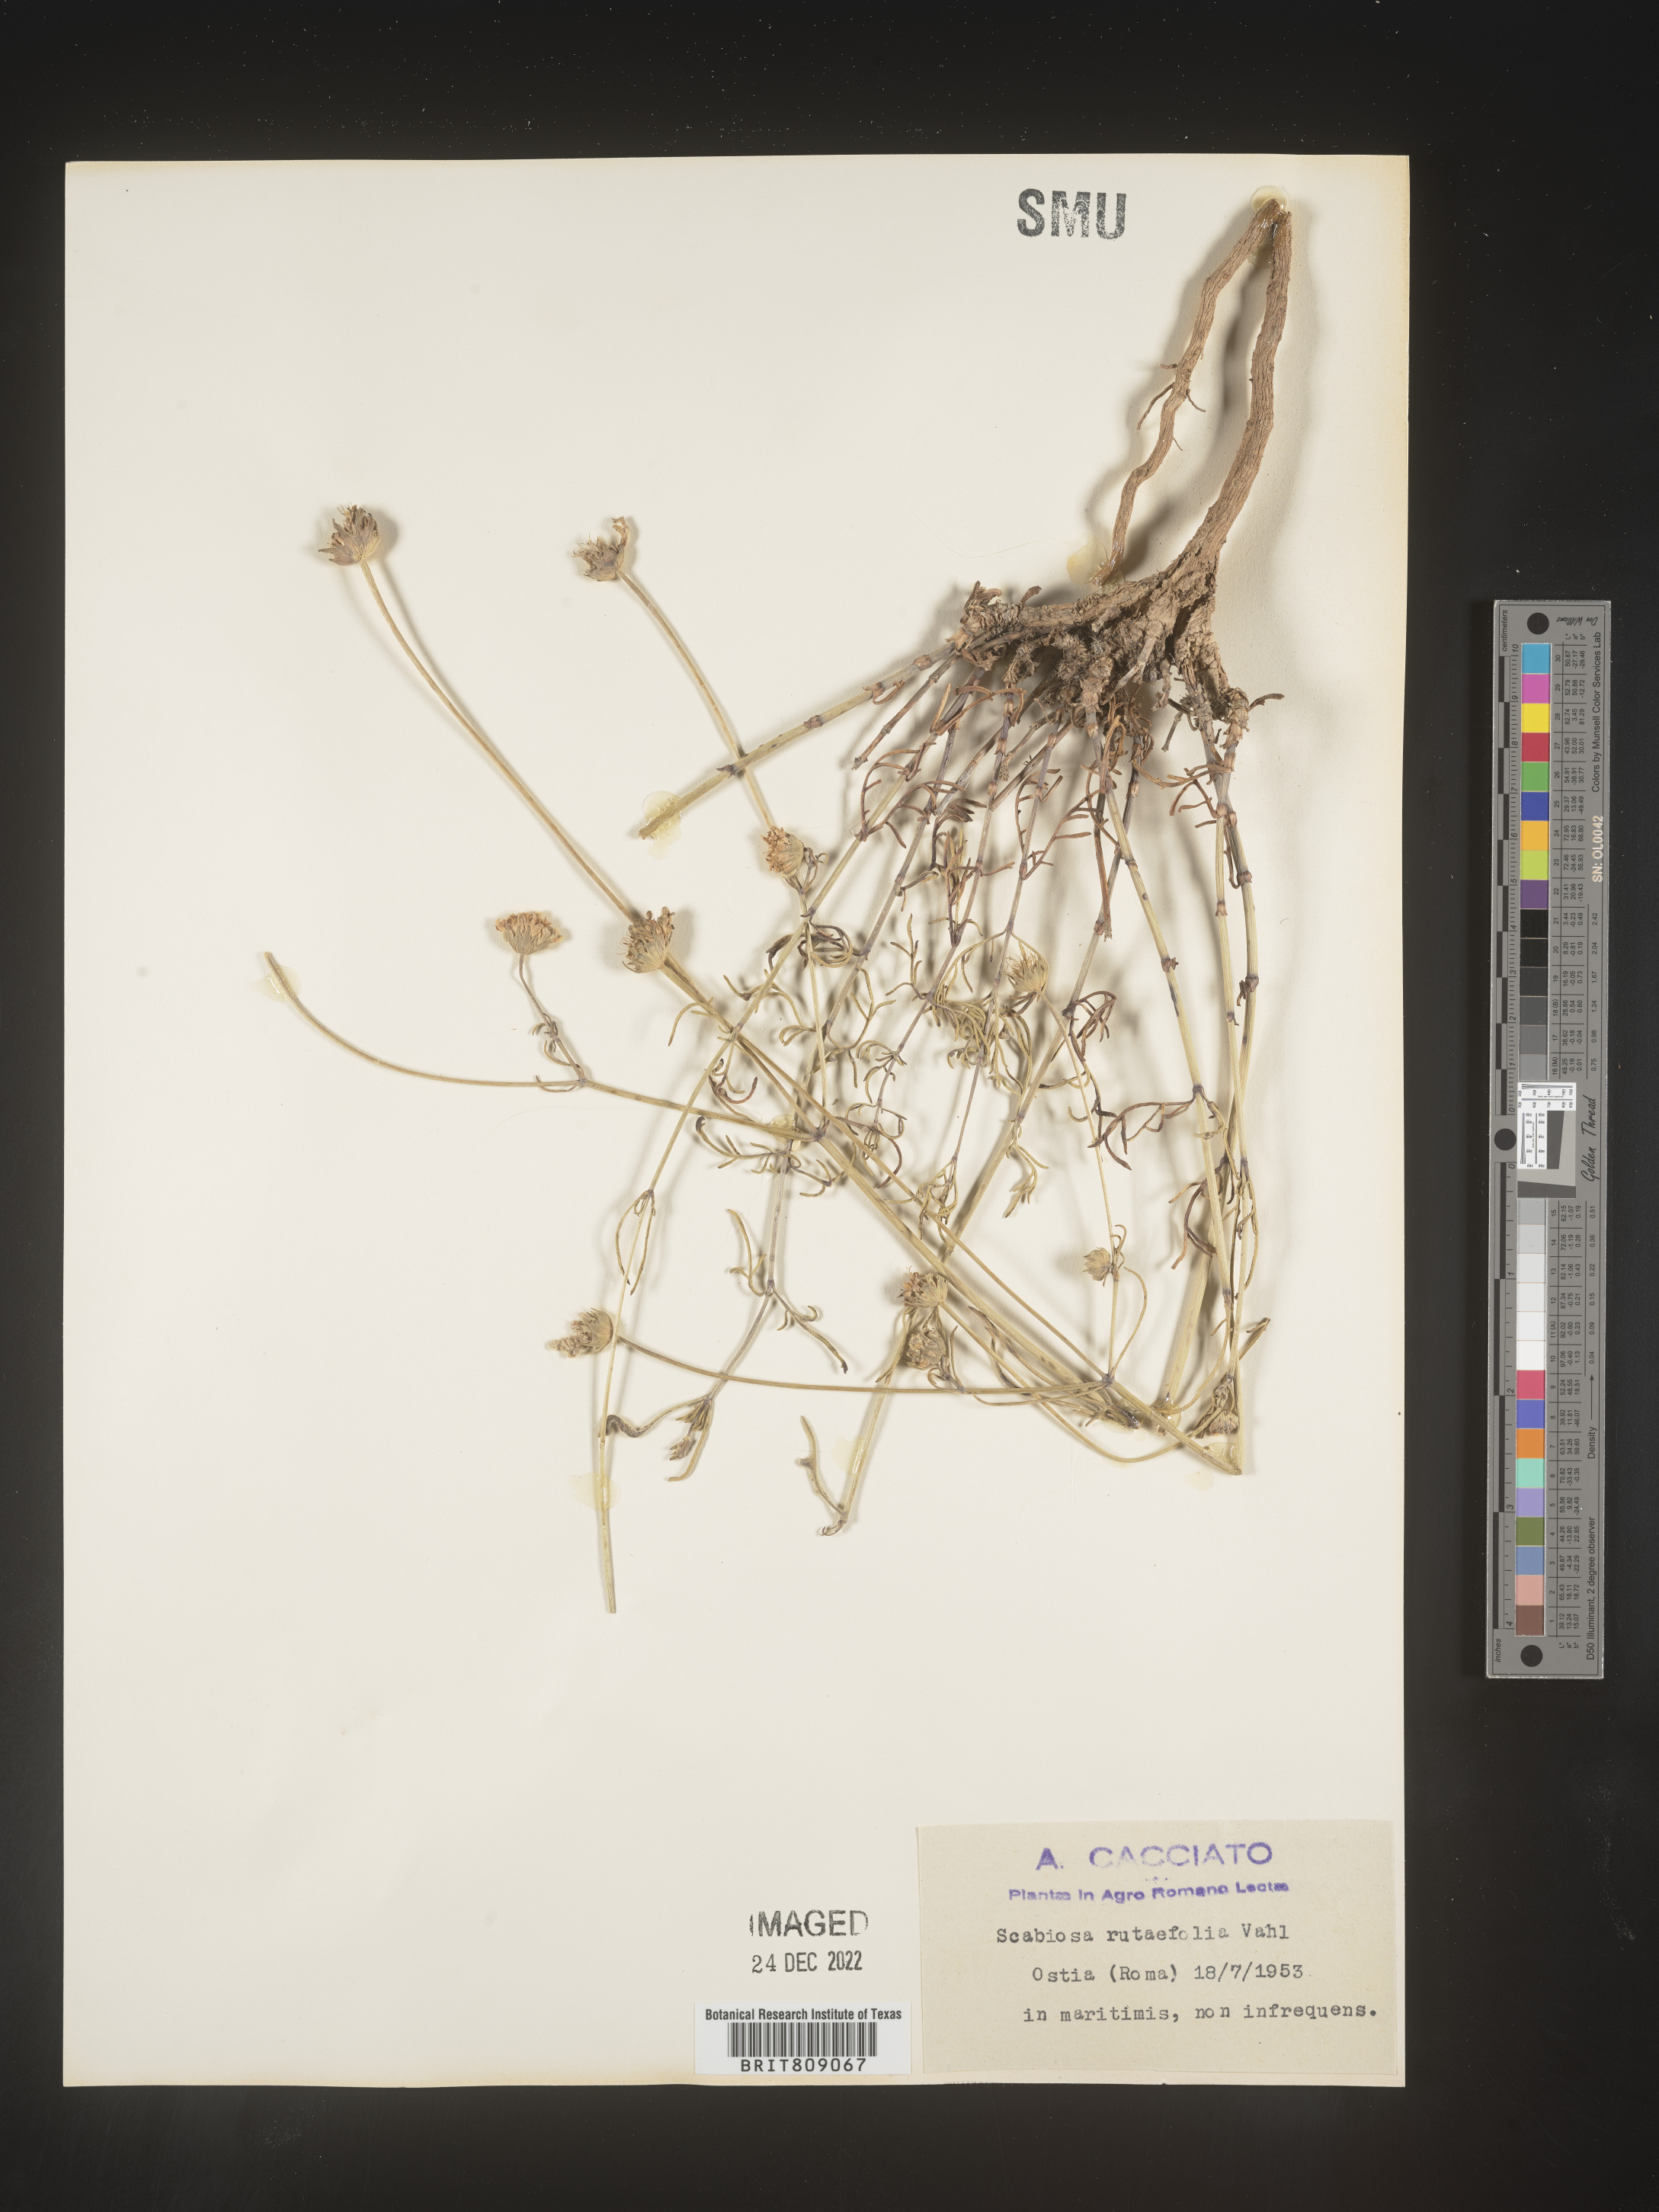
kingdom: Plantae
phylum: Tracheophyta
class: Magnoliopsida
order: Dipsacales
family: Caprifoliaceae
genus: Scabiosa
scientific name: Scabiosa
